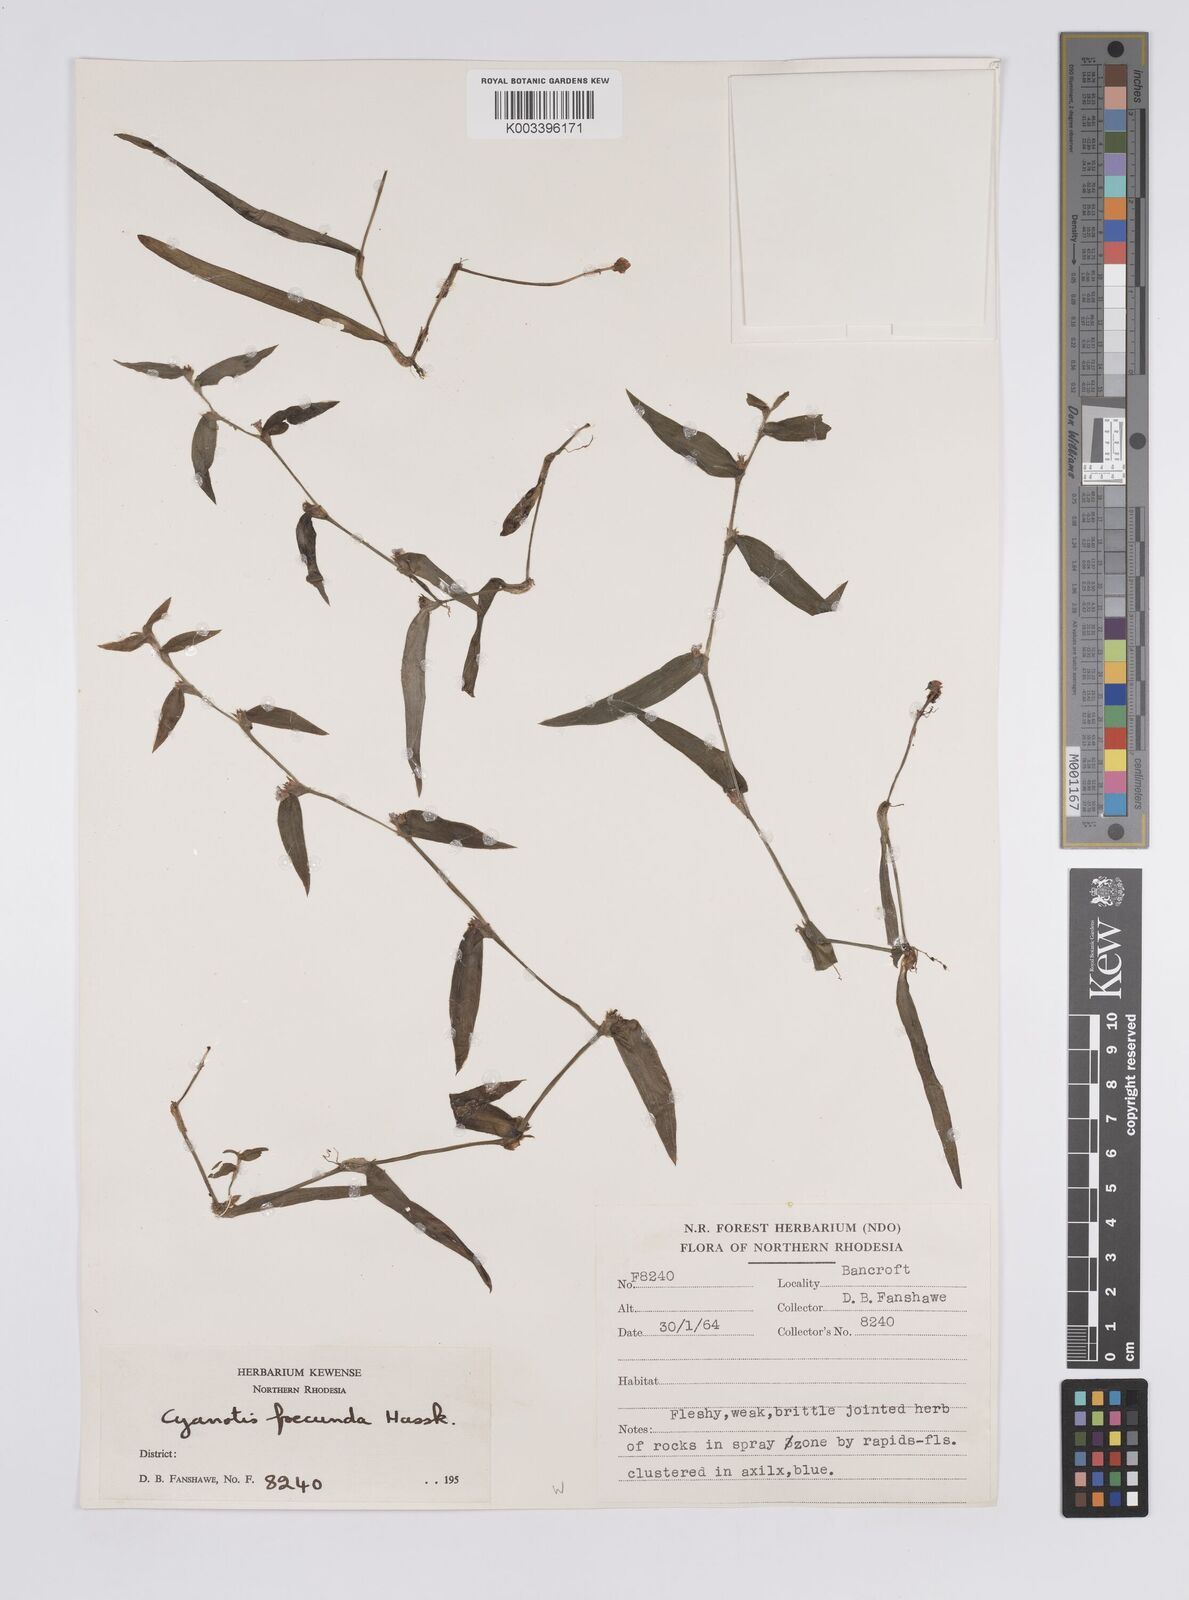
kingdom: Plantae
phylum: Tracheophyta
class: Liliopsida
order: Commelinales
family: Commelinaceae
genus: Cyanotis
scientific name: Cyanotis foecunda
